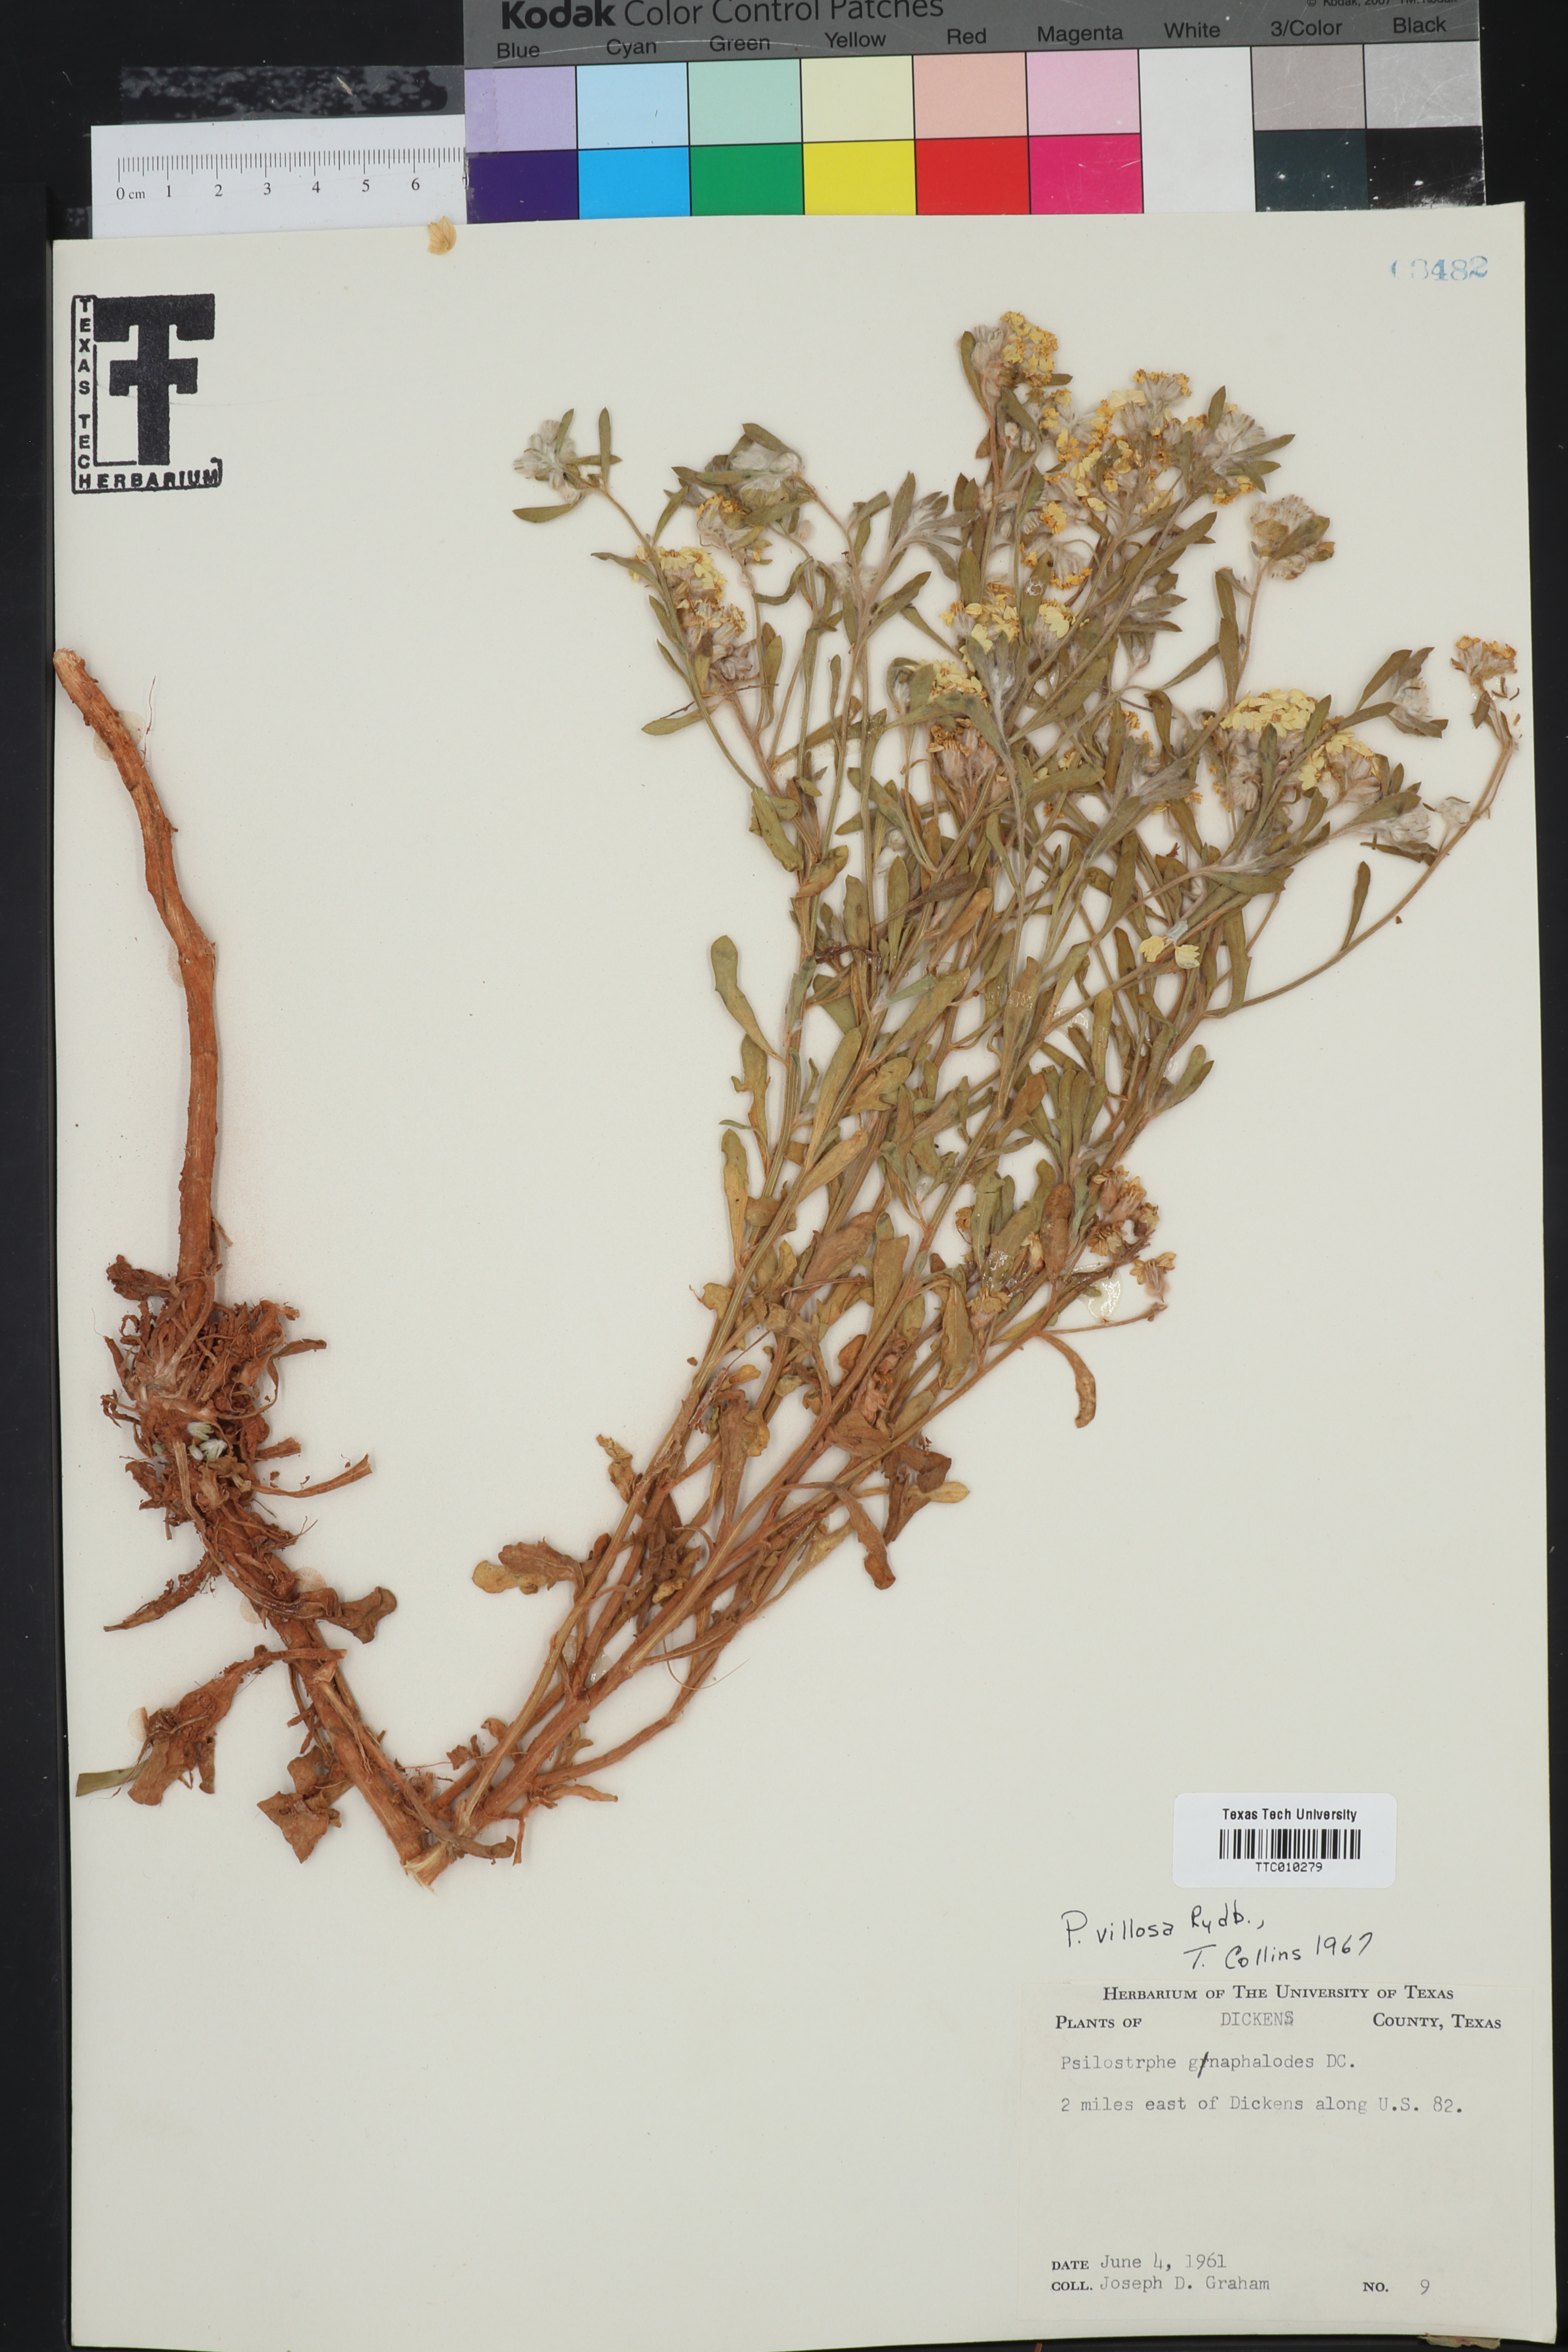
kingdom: Plantae
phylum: Tracheophyta
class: Magnoliopsida
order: Asterales
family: Asteraceae
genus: Psilostrophe
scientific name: Psilostrophe villosa
